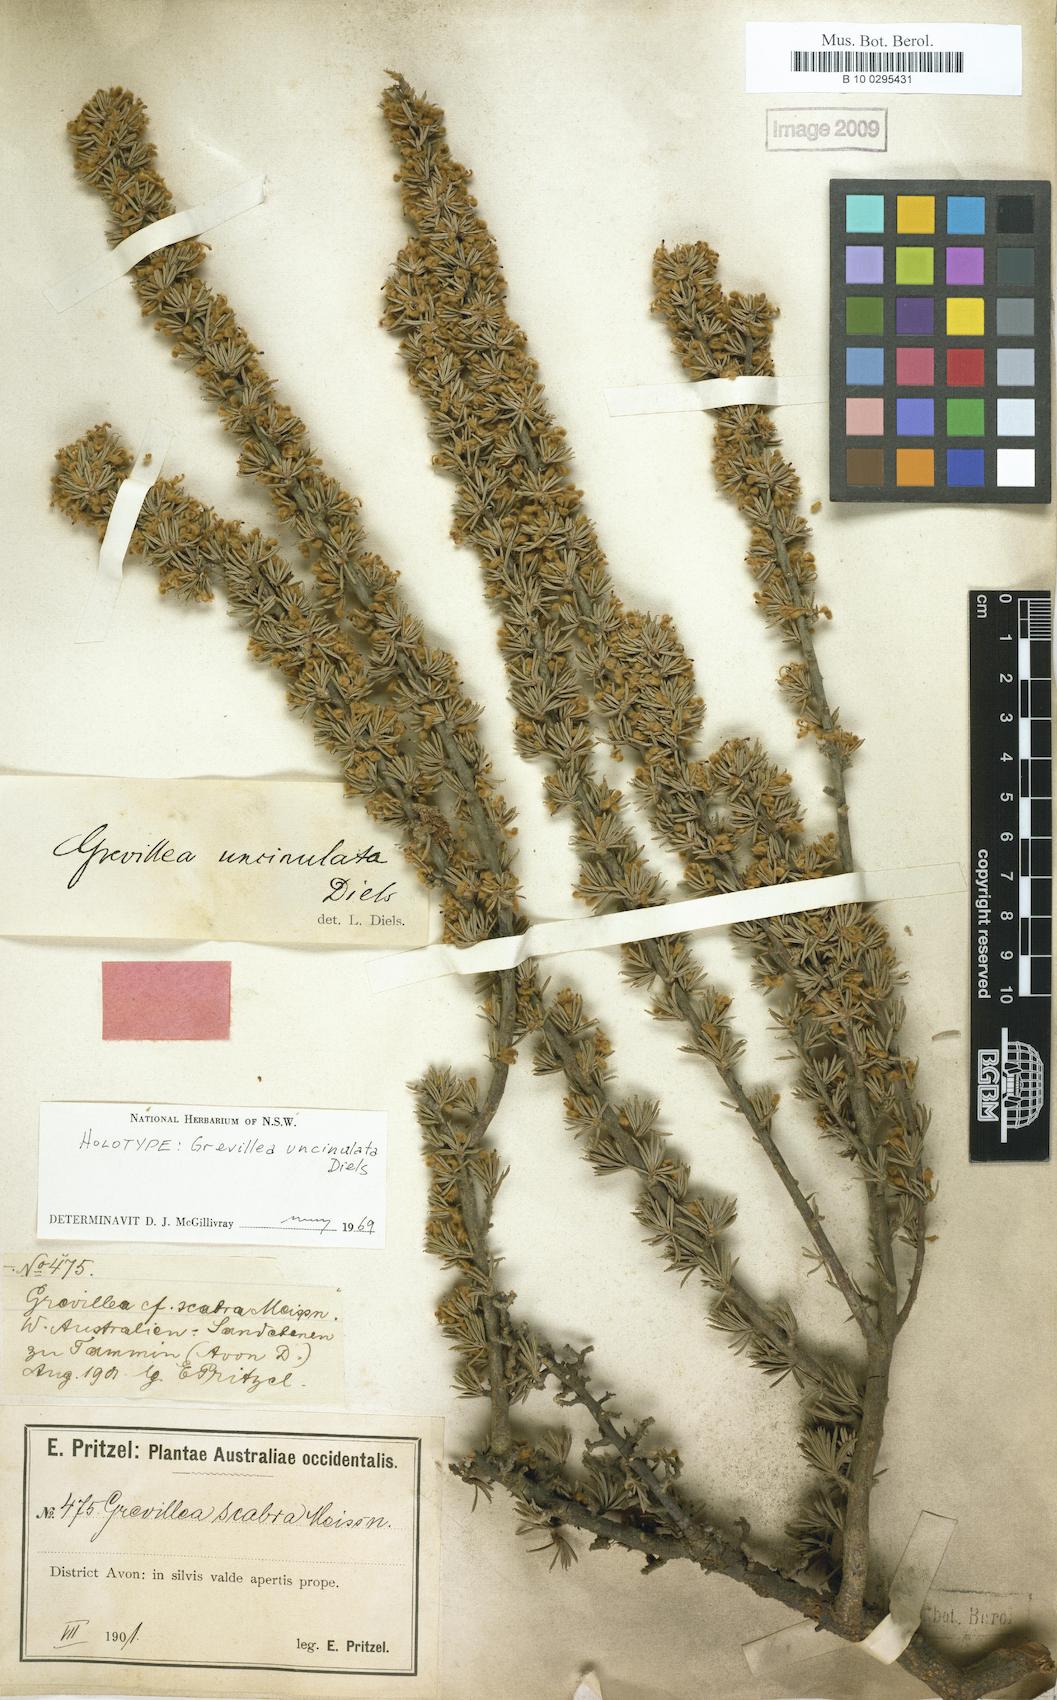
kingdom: Plantae
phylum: Tracheophyta
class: Magnoliopsida
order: Proteales
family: Proteaceae
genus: Grevillea
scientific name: Grevillea uncinulata
